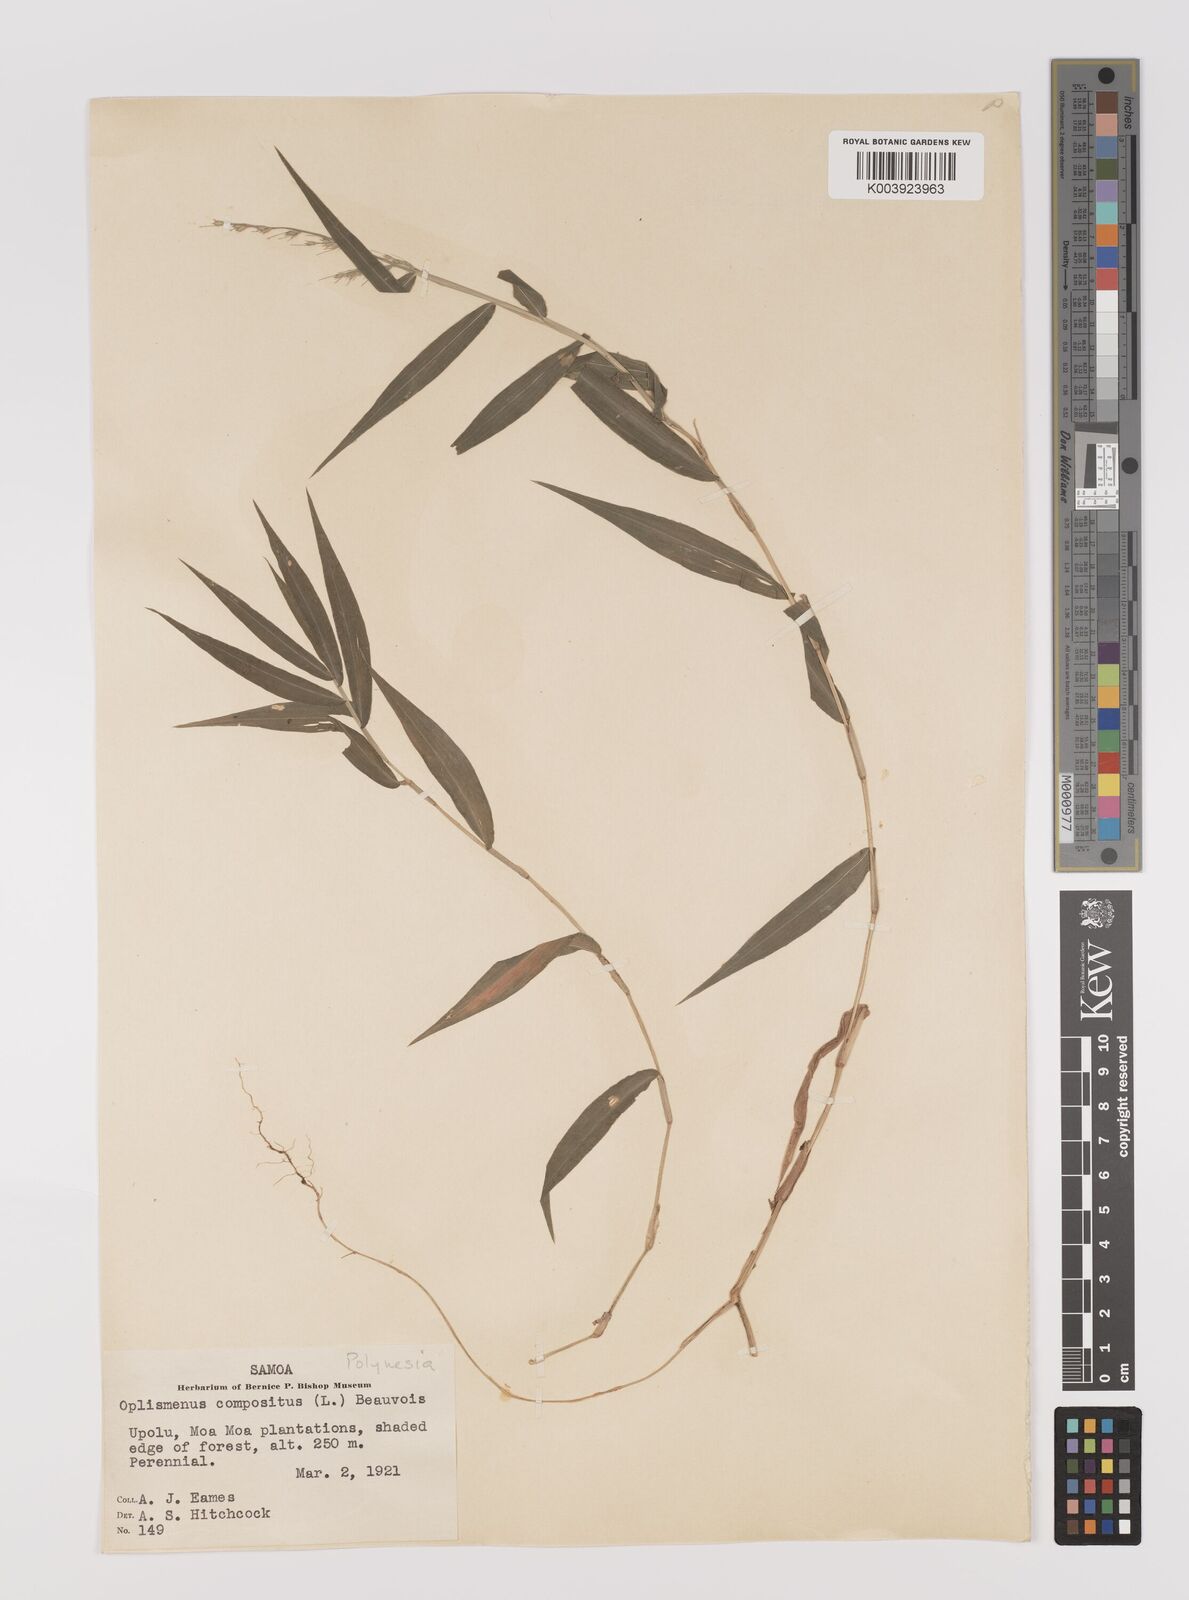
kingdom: Plantae
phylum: Tracheophyta
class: Liliopsida
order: Poales
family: Poaceae
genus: Oplismenus
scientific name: Oplismenus compositus
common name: Running mountain grass
